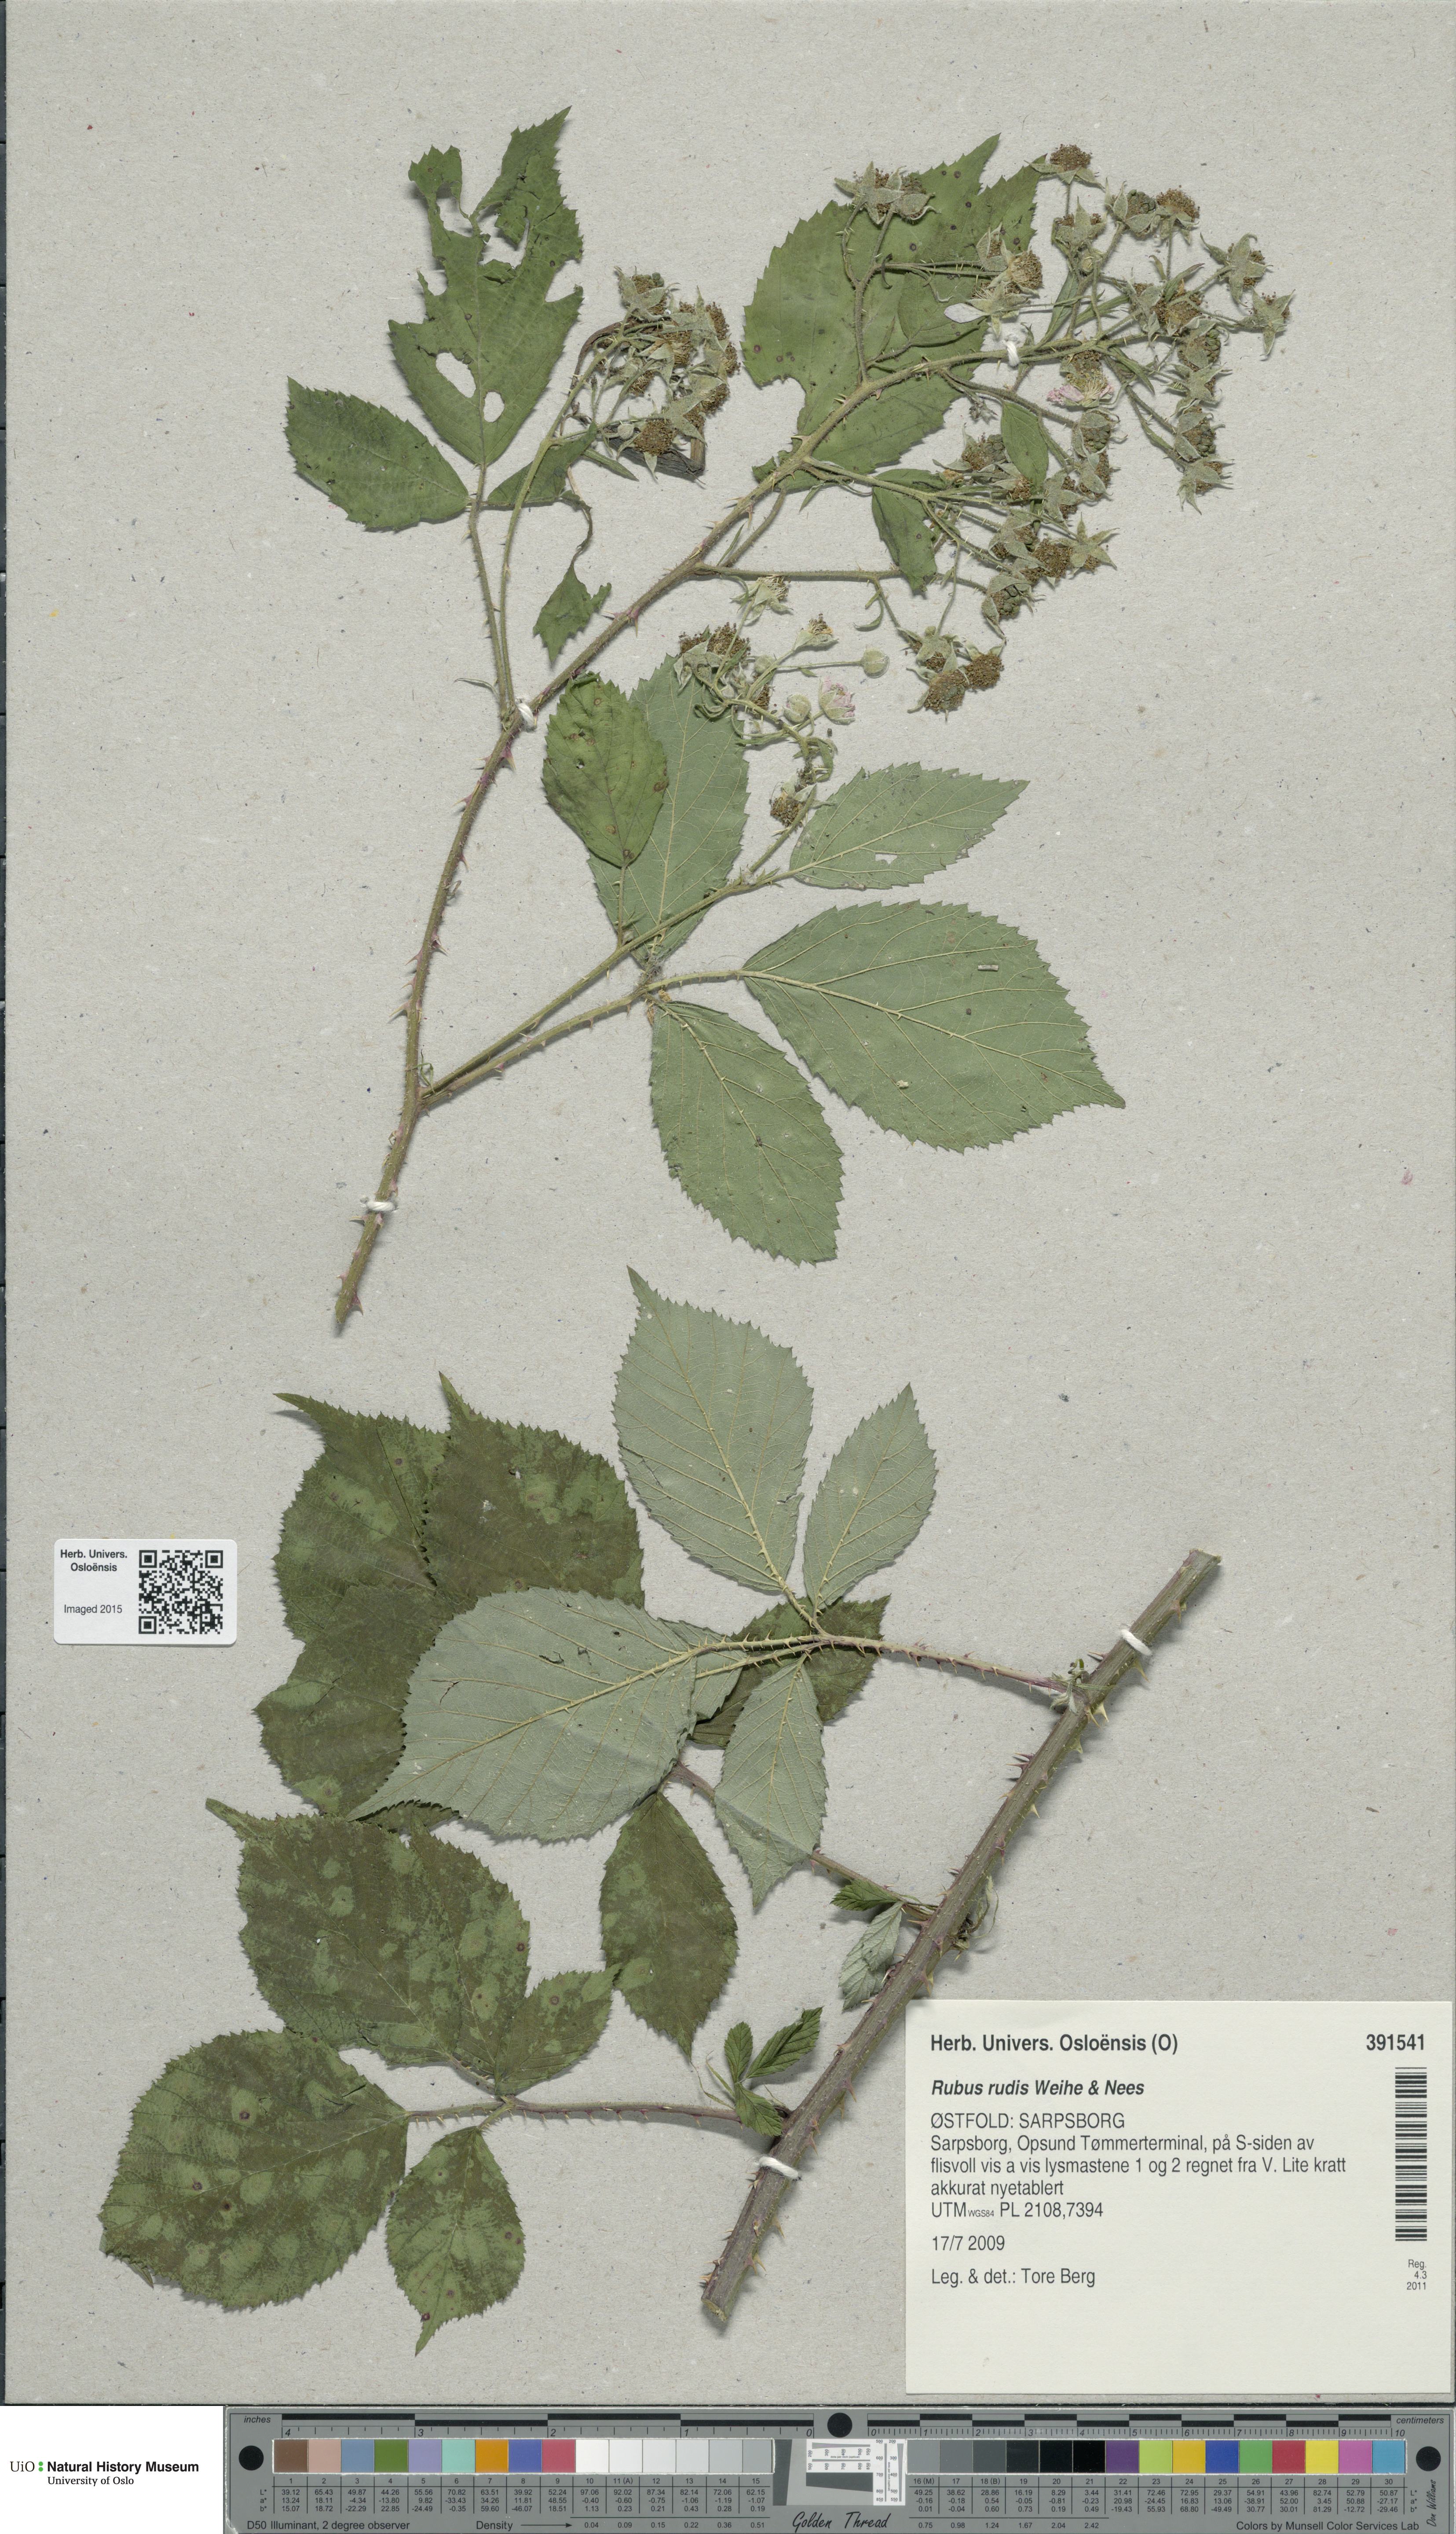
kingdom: Plantae
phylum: Tracheophyta
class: Magnoliopsida
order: Rosales
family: Rosaceae
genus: Rubus
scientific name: Rubus rudis
